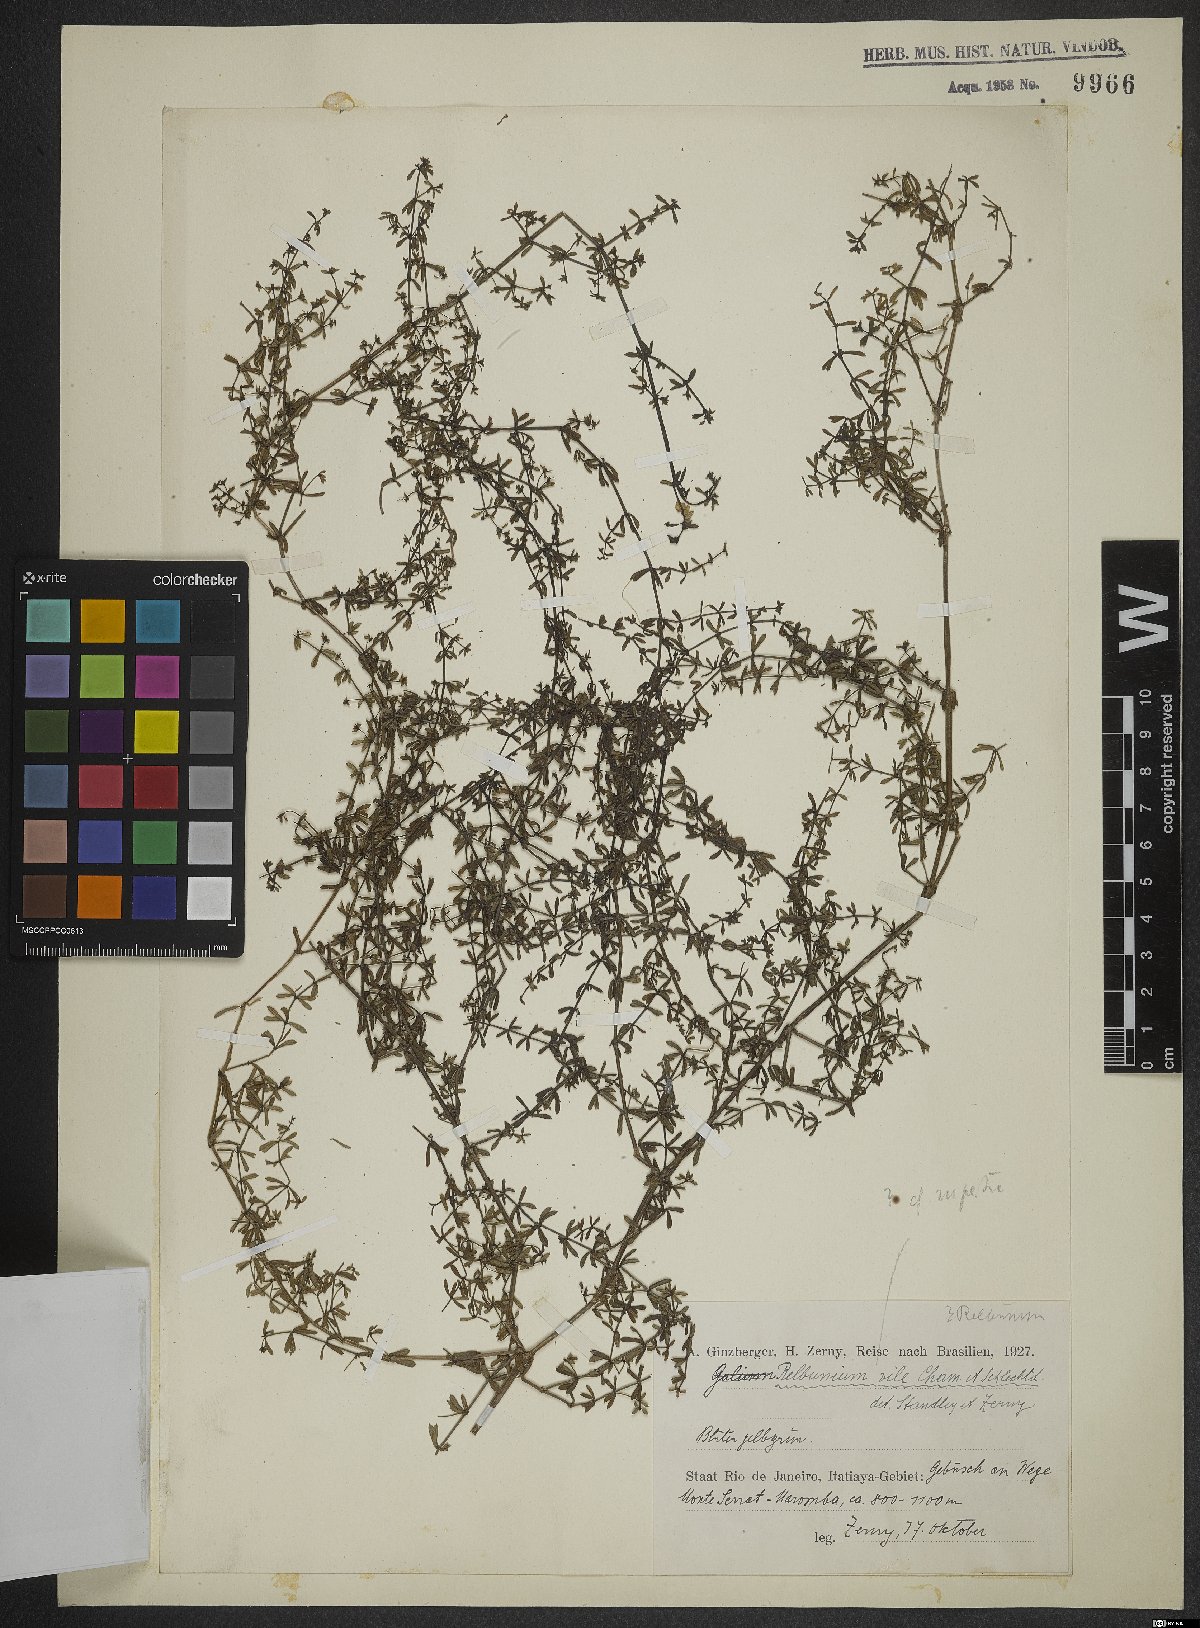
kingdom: Plantae
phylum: Tracheophyta
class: Magnoliopsida
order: Gentianales
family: Rubiaceae
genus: Galium
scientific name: Galium hypocarpium
